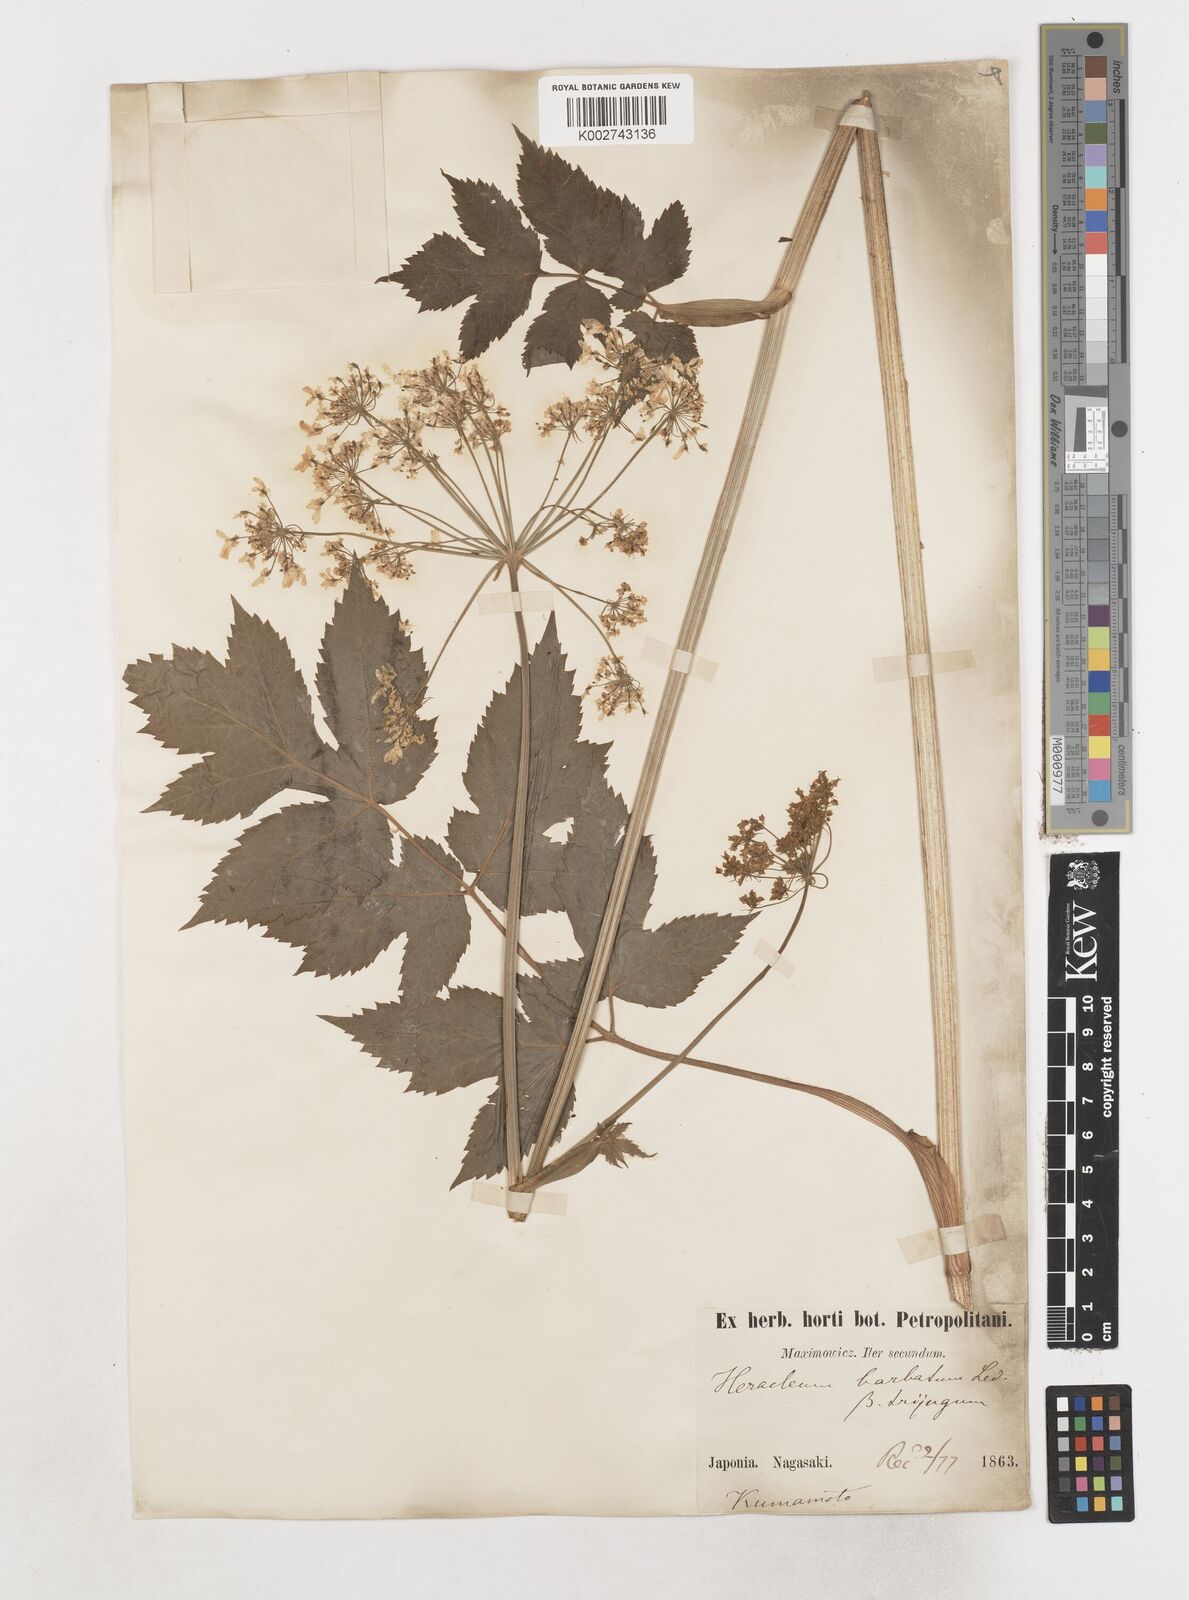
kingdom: Plantae
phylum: Tracheophyta
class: Magnoliopsida
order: Apiales
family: Apiaceae
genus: Heracleum
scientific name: Heracleum dissectum
